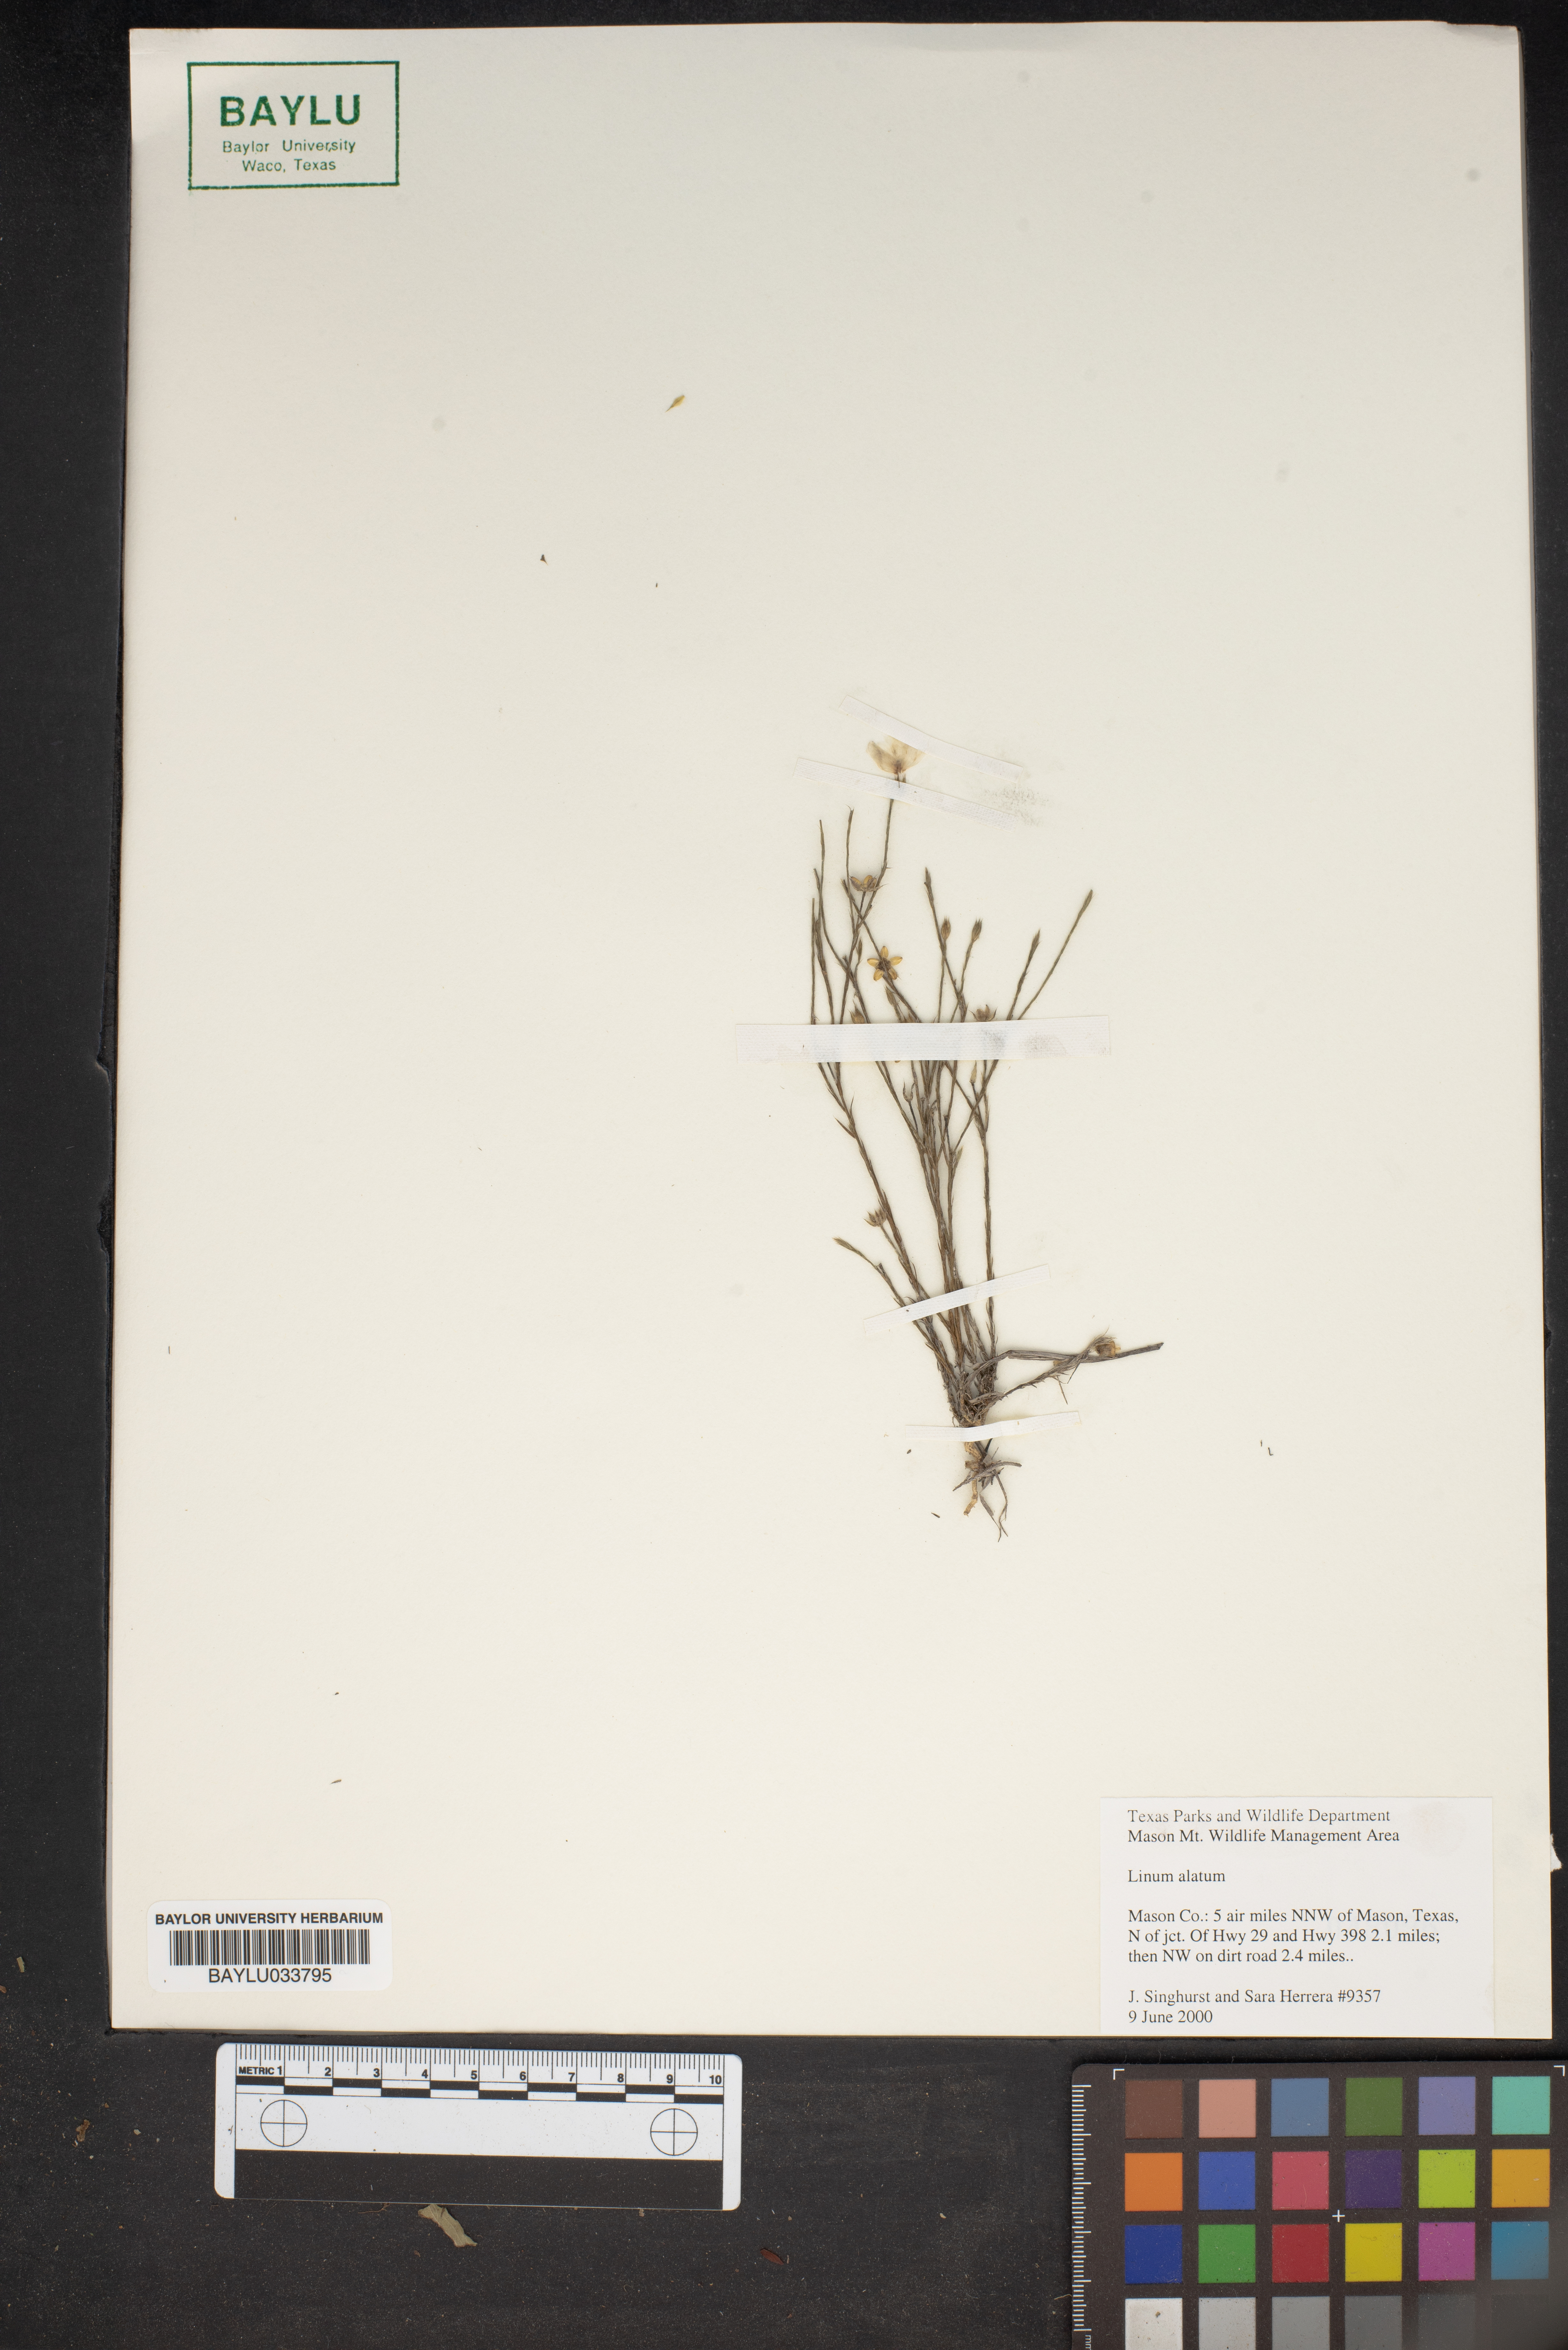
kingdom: Plantae
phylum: Tracheophyta
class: Magnoliopsida
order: Malpighiales
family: Linaceae
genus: Linum
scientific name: Linum alatum
